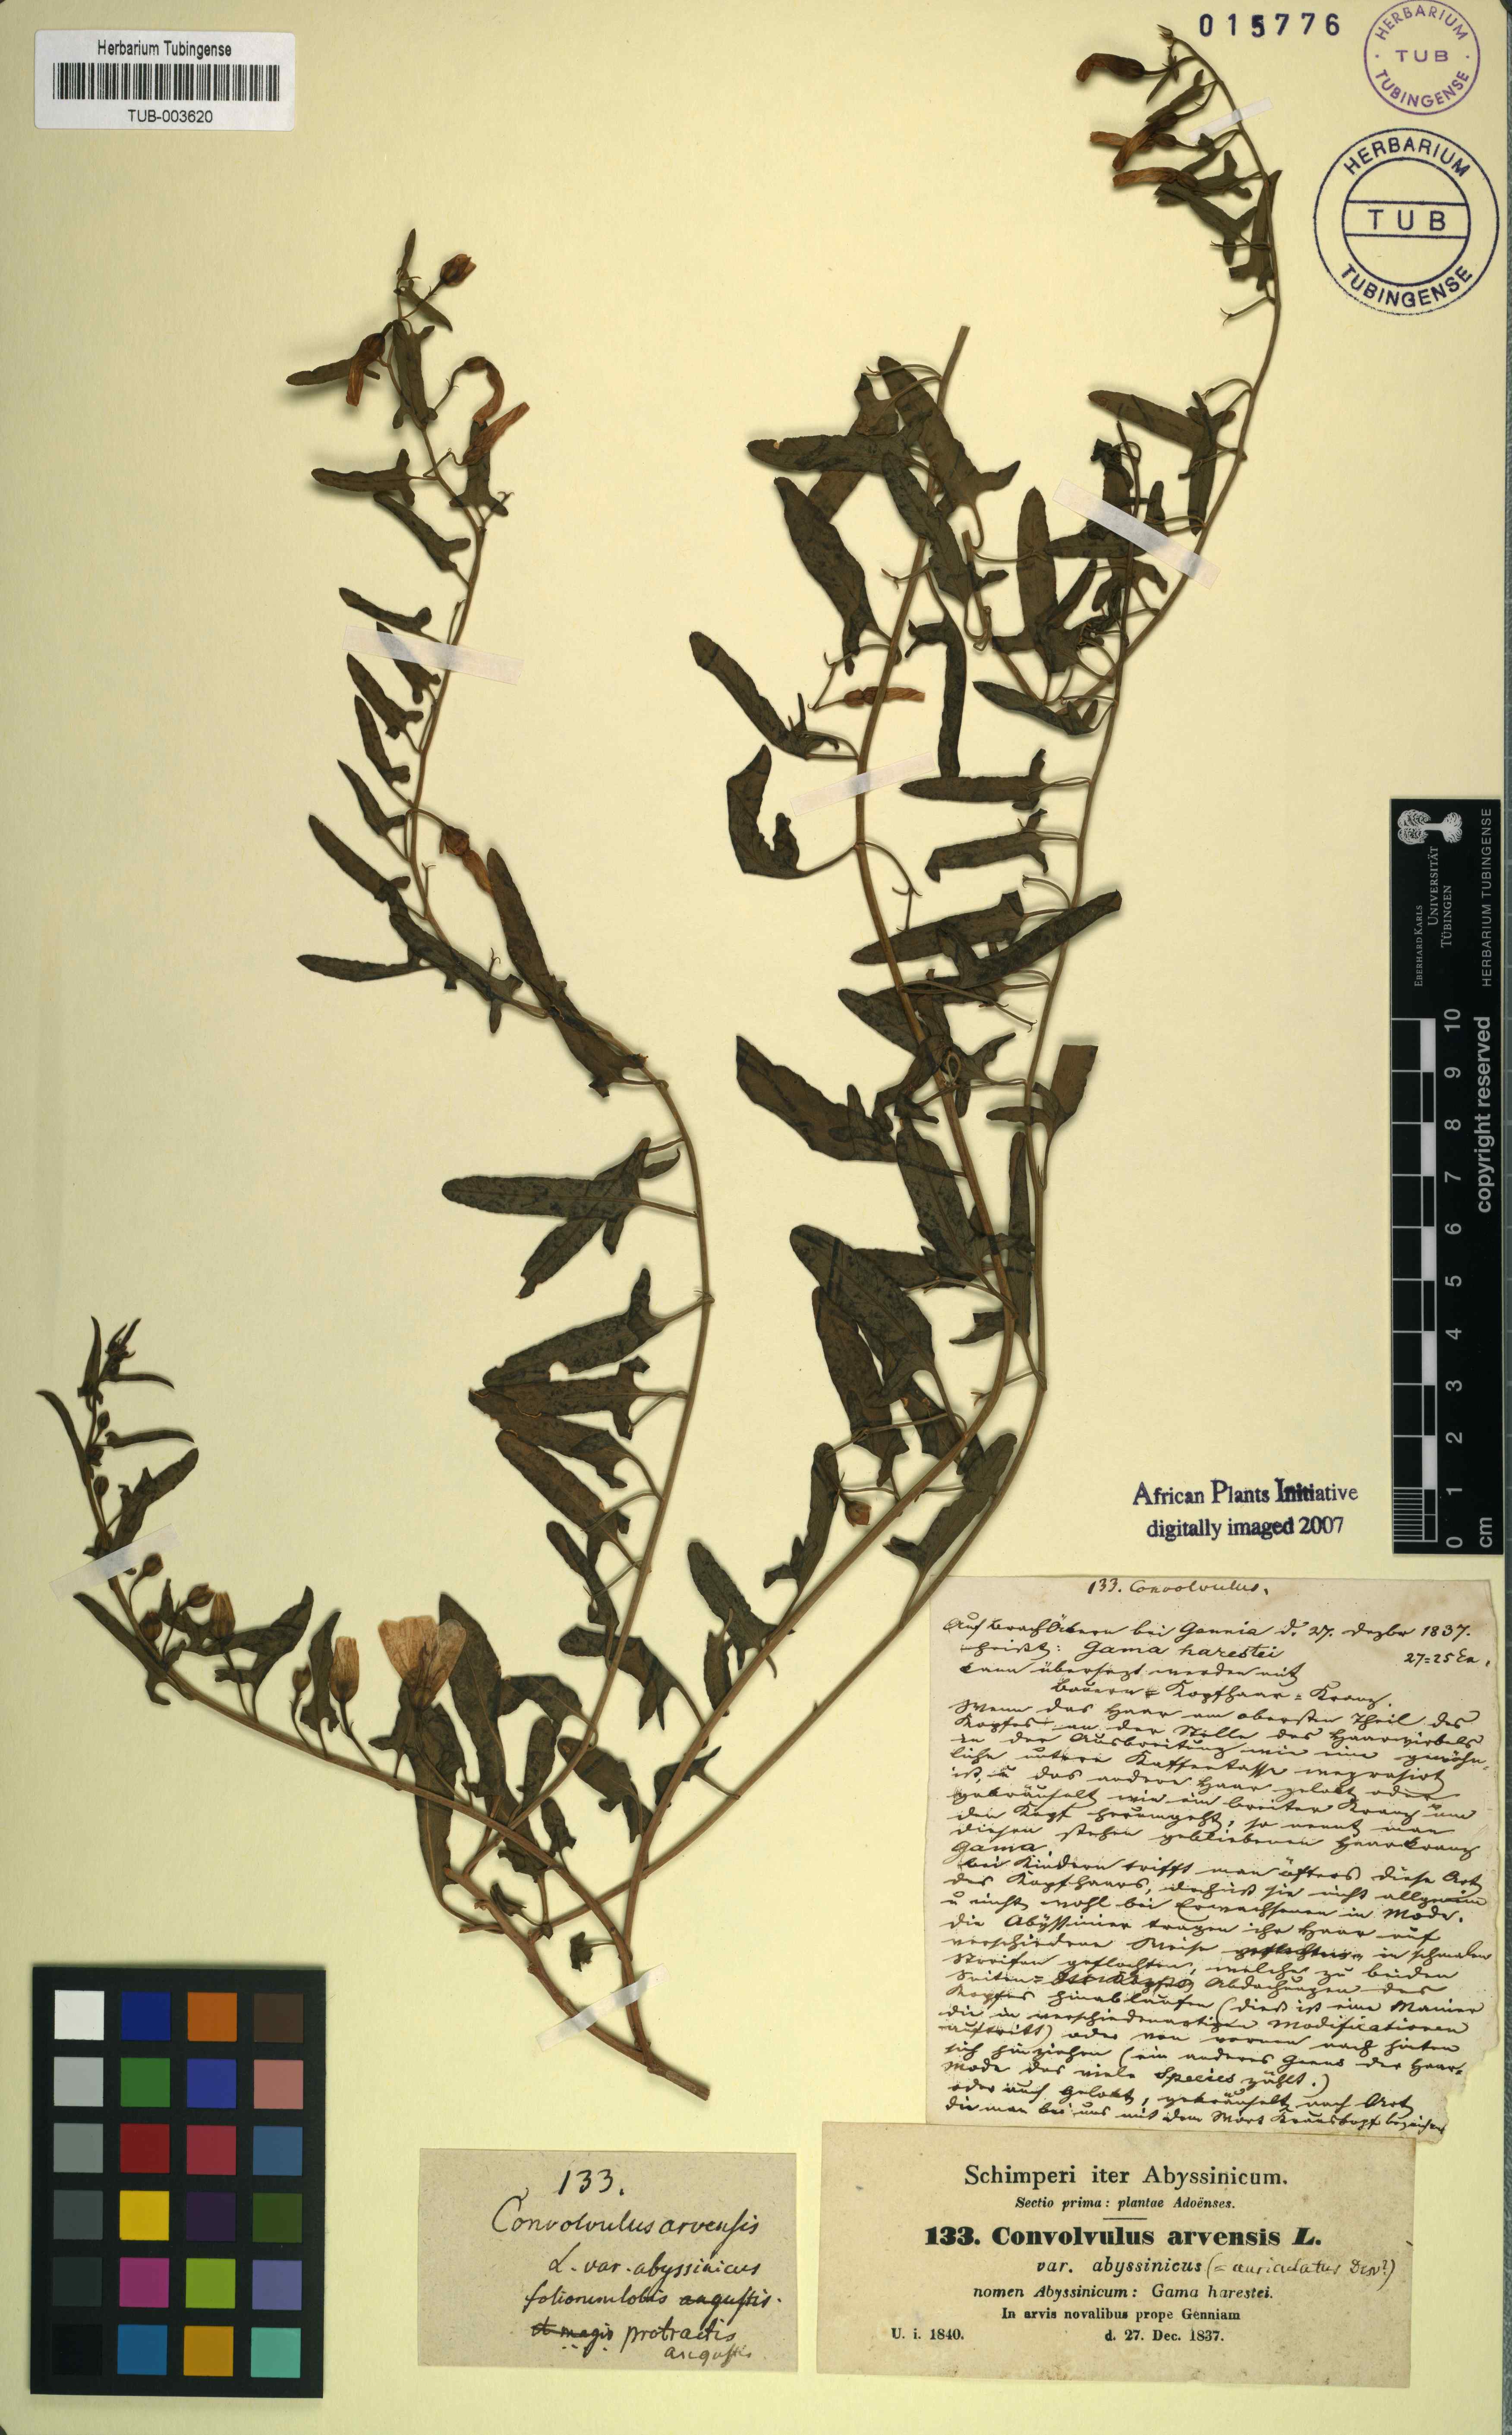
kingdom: Plantae
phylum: Tracheophyta
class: Magnoliopsida
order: Solanales
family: Convolvulaceae
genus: Convolvulus
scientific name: Convolvulus arvensis
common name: Field bindweed
